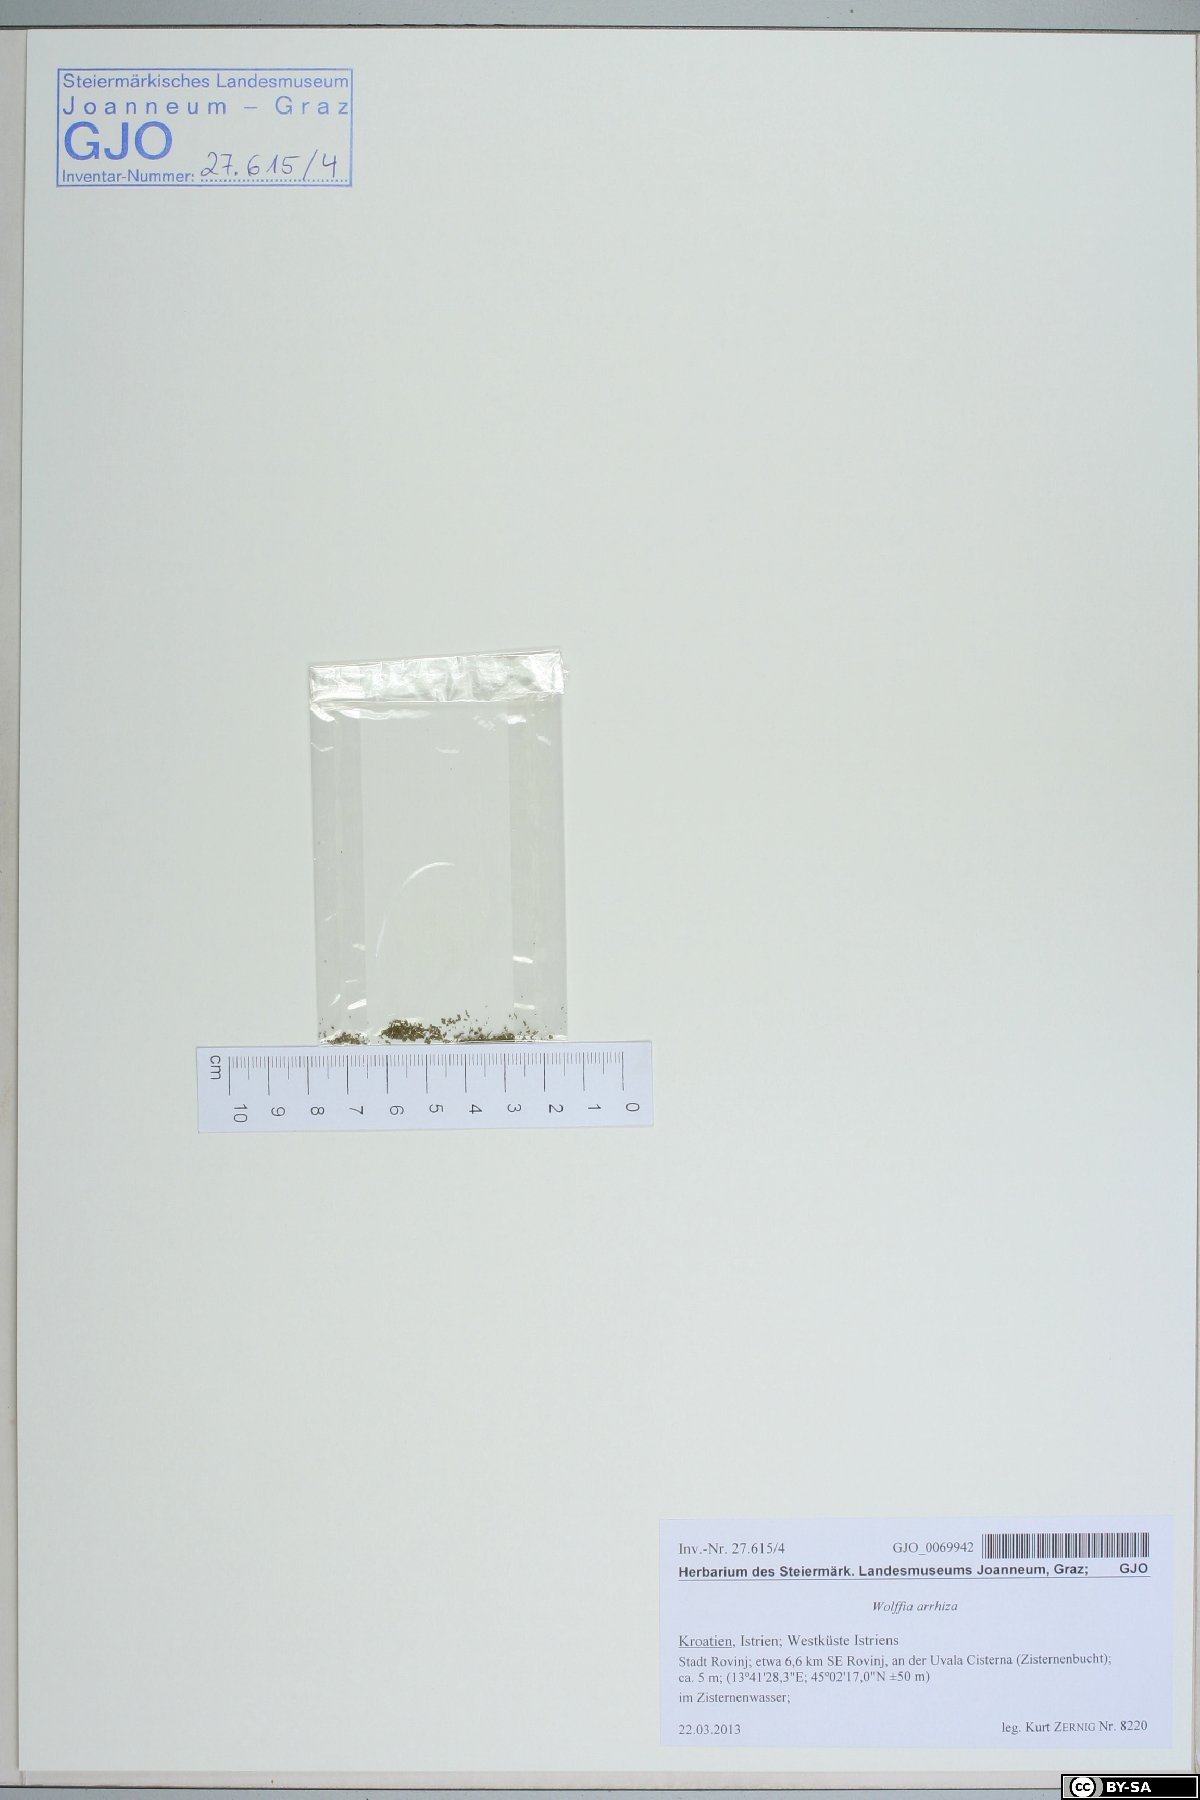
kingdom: Plantae
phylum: Tracheophyta
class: Liliopsida
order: Alismatales
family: Araceae
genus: Wolffia
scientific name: Wolffia arrhiza
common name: Rootless duckweed
